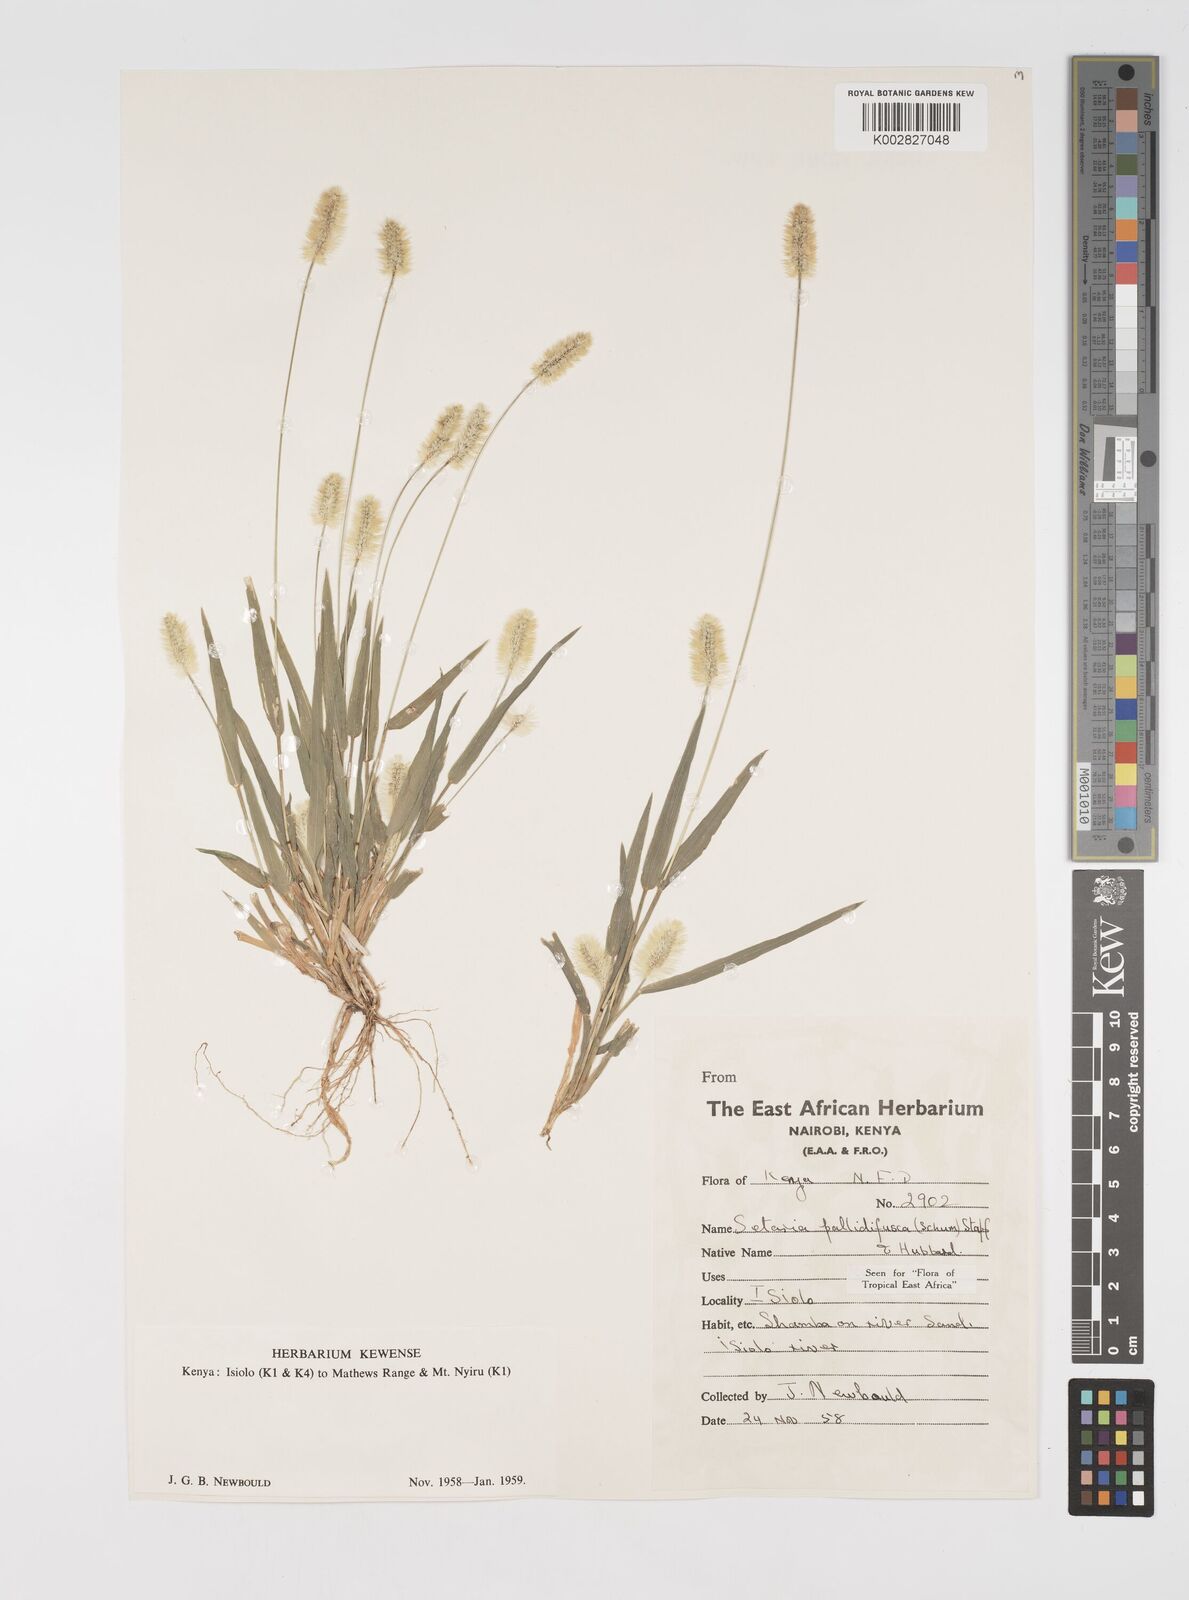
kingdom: Plantae
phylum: Tracheophyta
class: Liliopsida
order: Poales
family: Poaceae
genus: Setaria
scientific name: Setaria pumila
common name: Yellow bristle-grass
